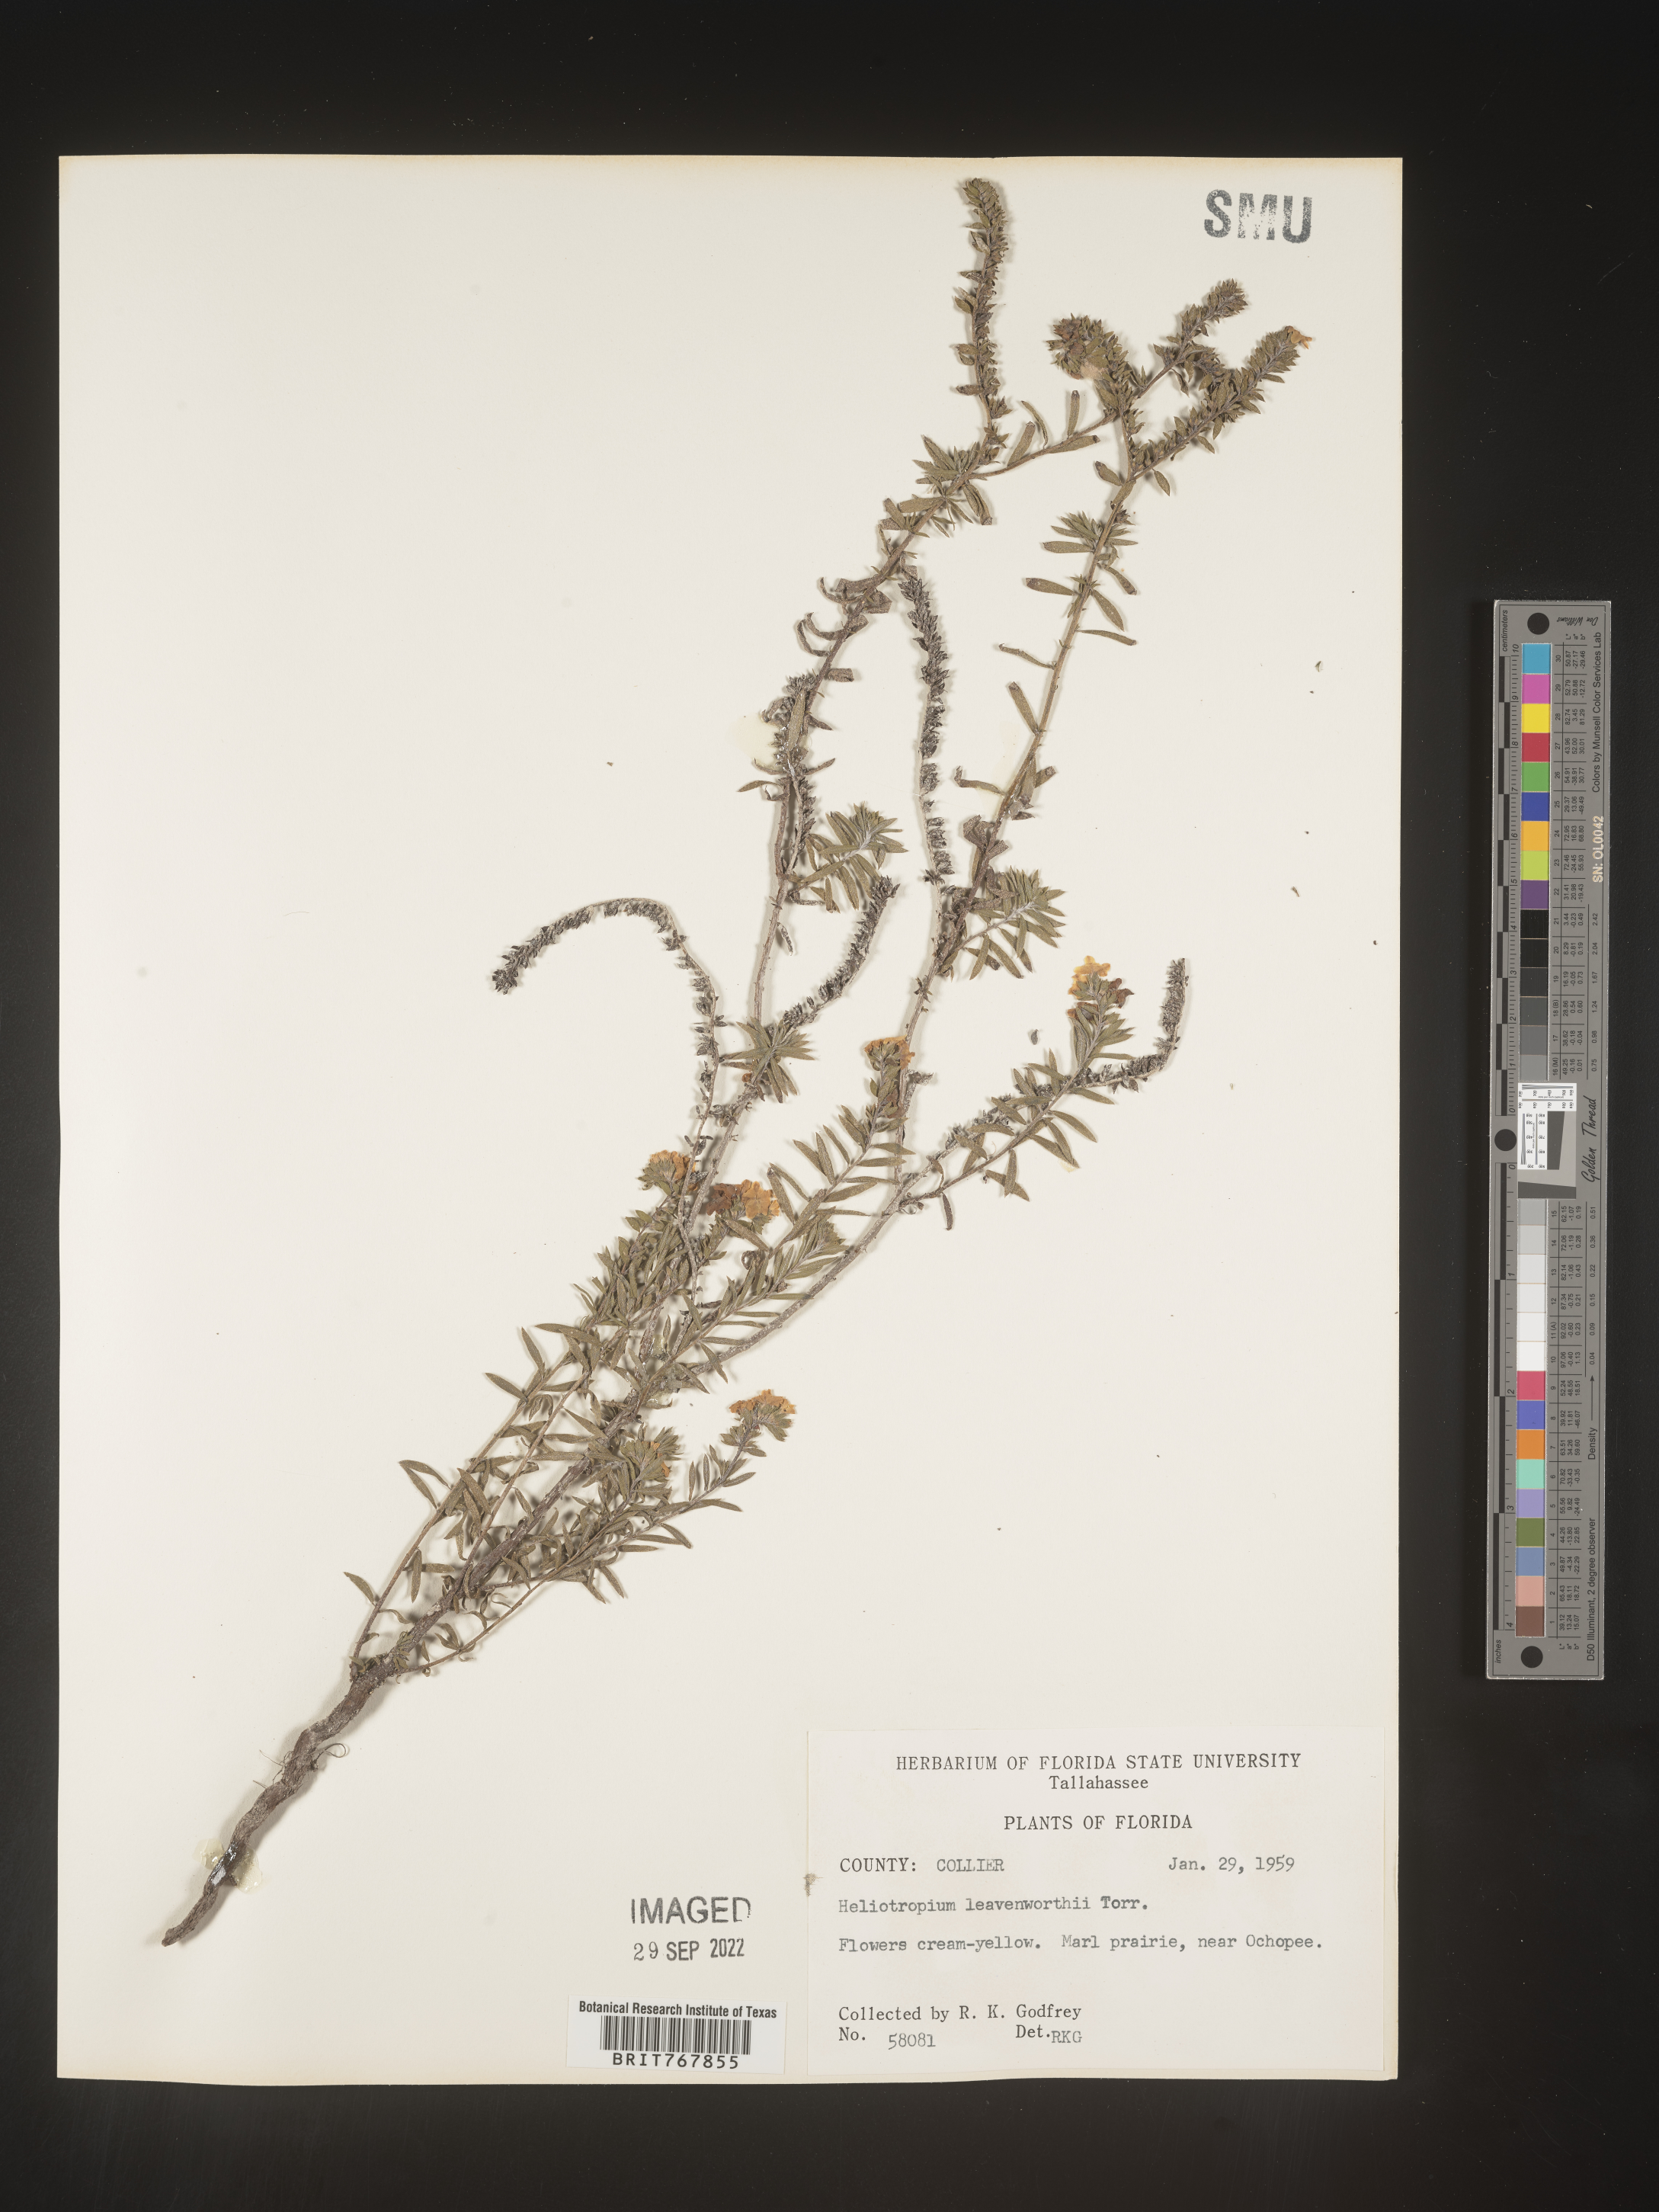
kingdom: Plantae
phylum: Tracheophyta
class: Magnoliopsida
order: Boraginales
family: Heliotropiaceae
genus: Heliotropium
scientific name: Heliotropium leavenworthii
